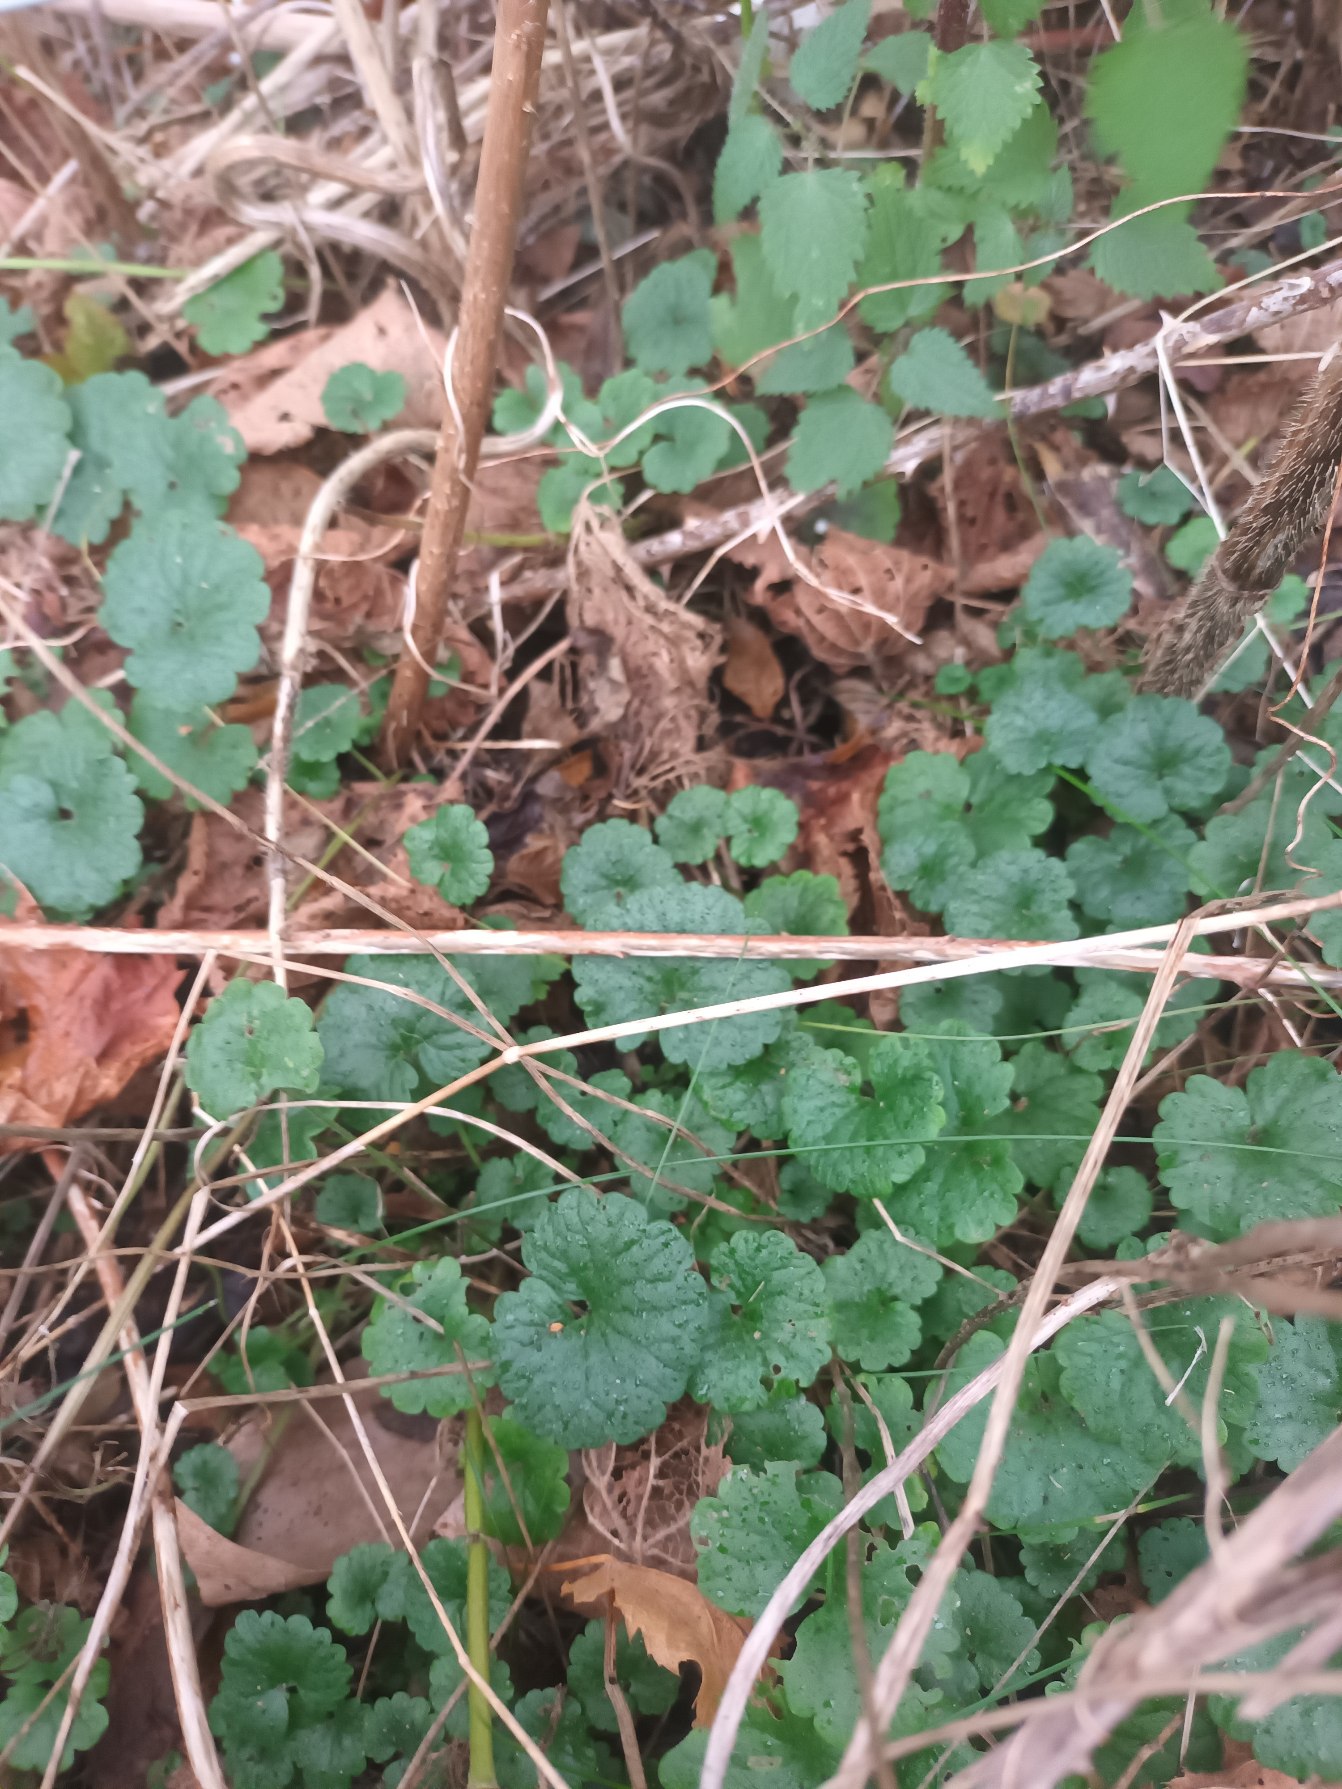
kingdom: Plantae
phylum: Tracheophyta
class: Magnoliopsida
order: Lamiales
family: Lamiaceae
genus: Glechoma
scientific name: Glechoma hederacea
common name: Korsknap
